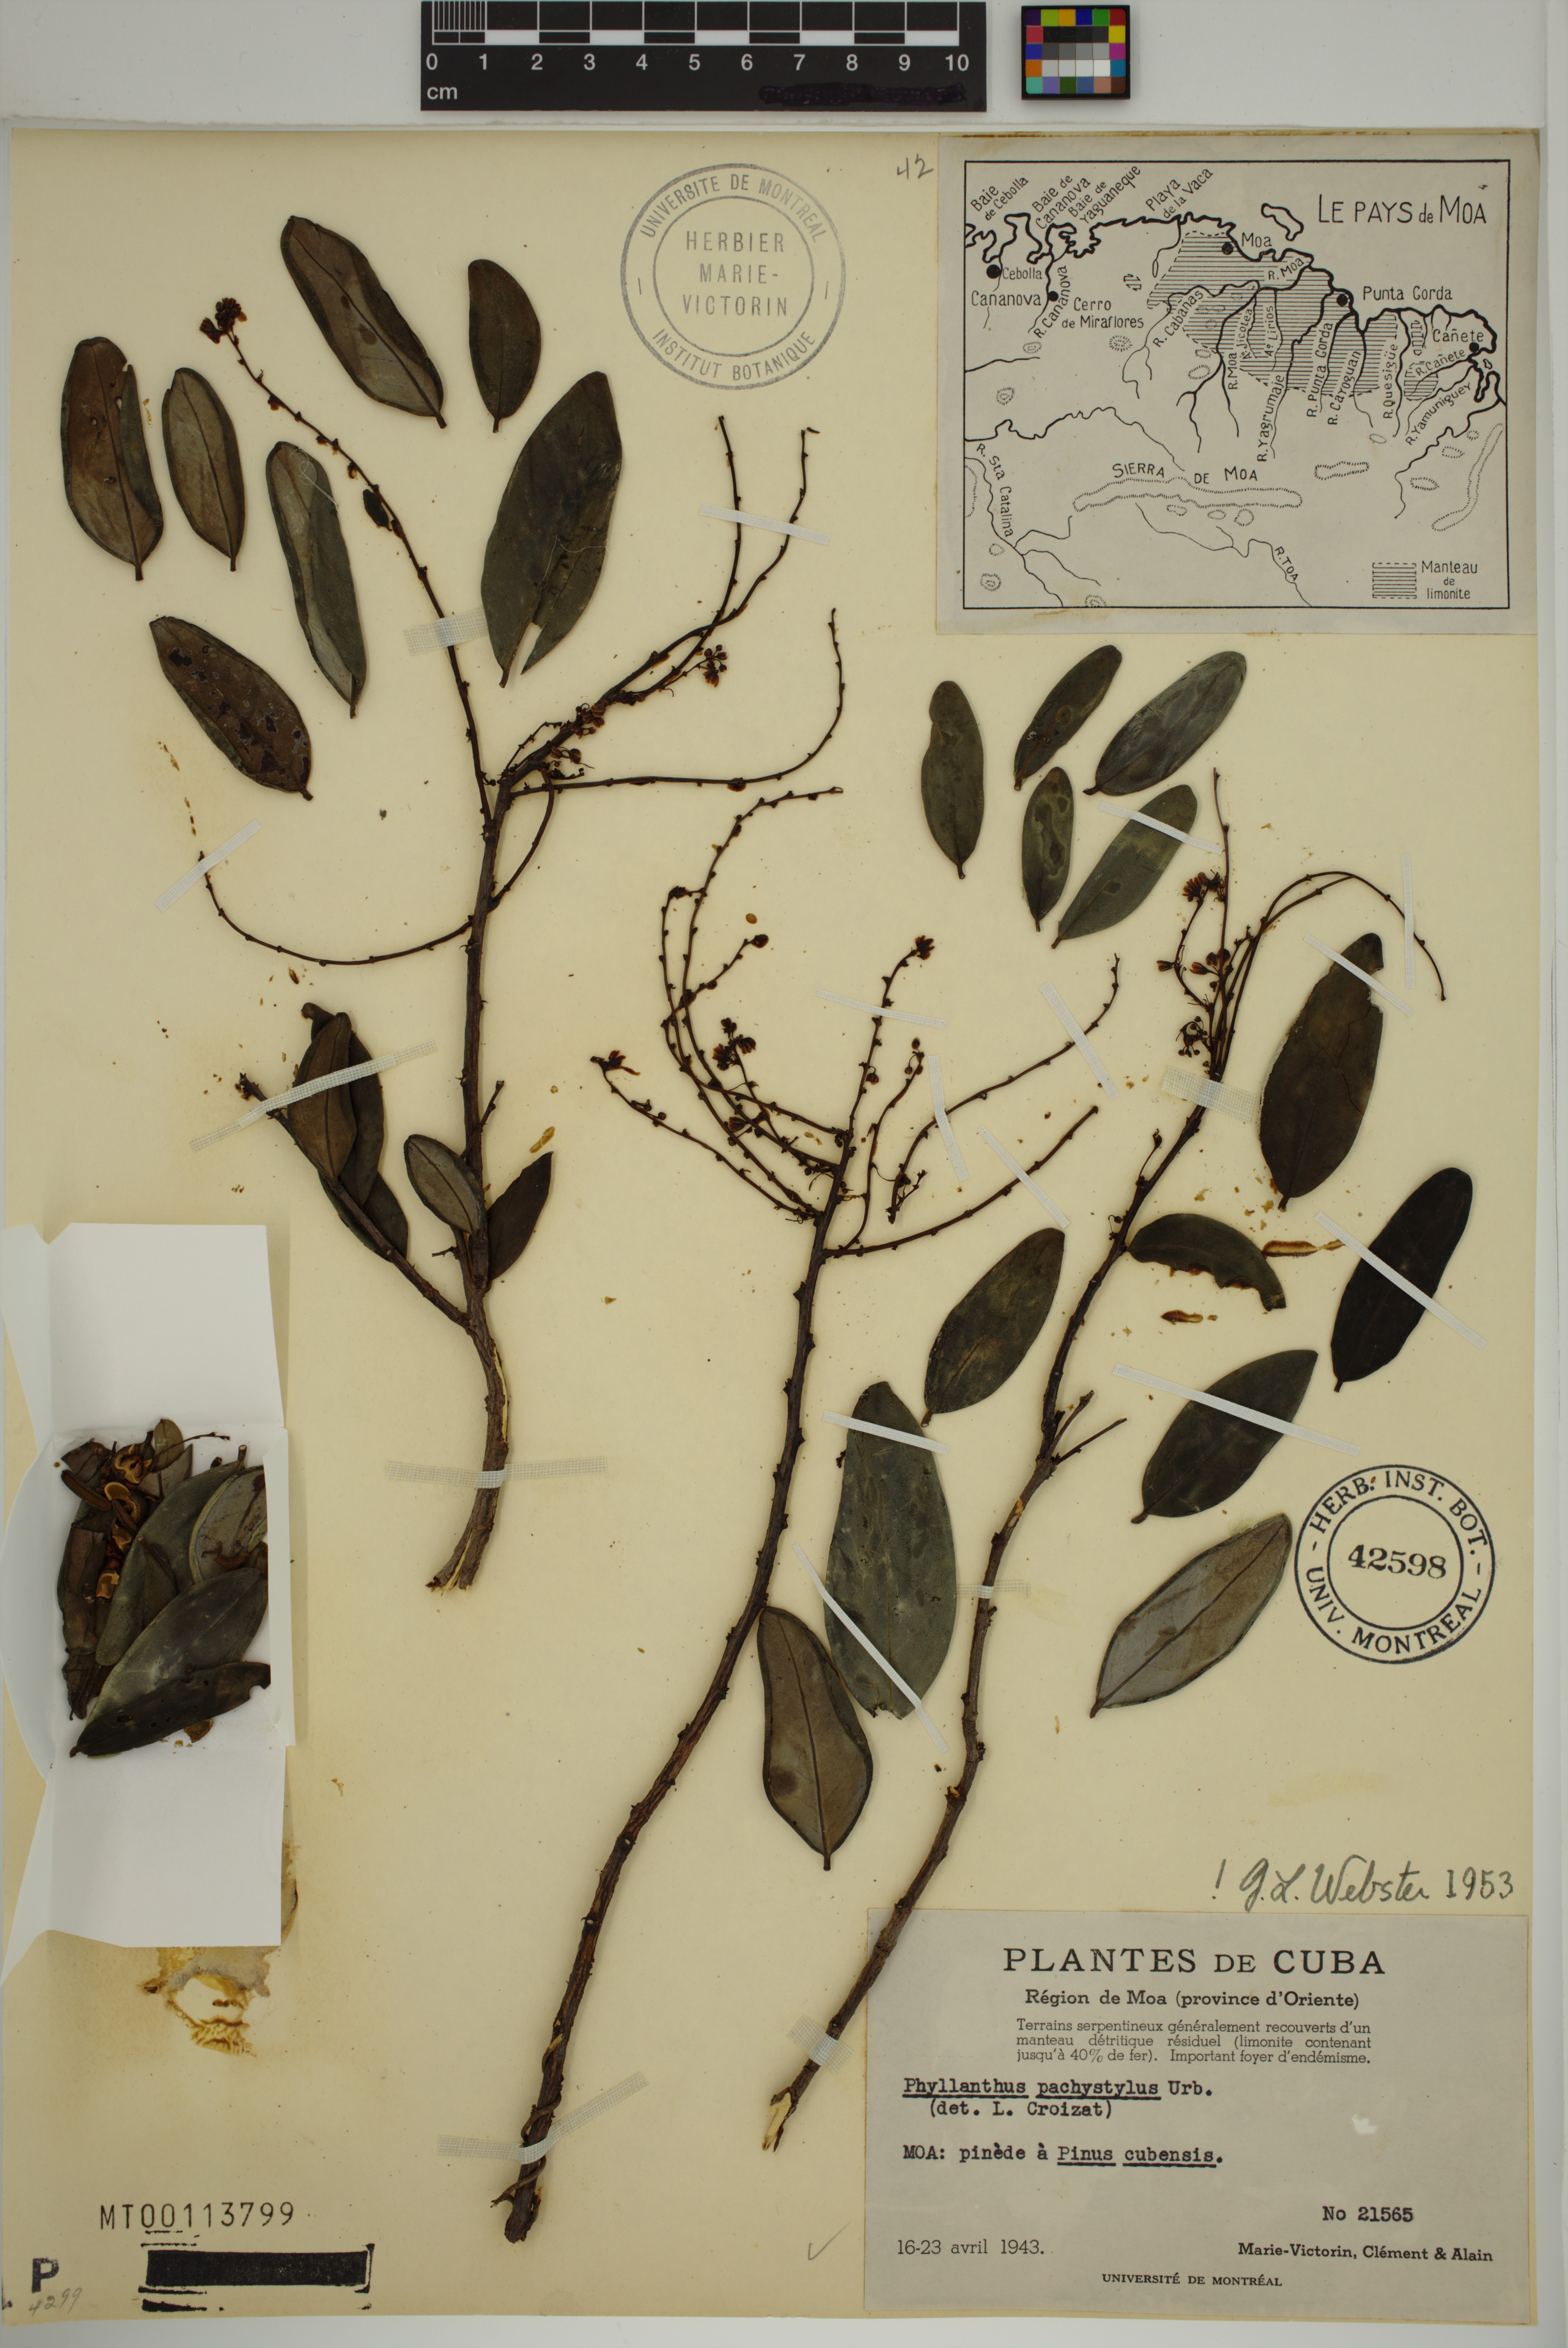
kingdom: Plantae
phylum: Tracheophyta
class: Magnoliopsida
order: Malpighiales
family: Phyllanthaceae
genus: Phyllanthus
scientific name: Phyllanthus pachystylus
